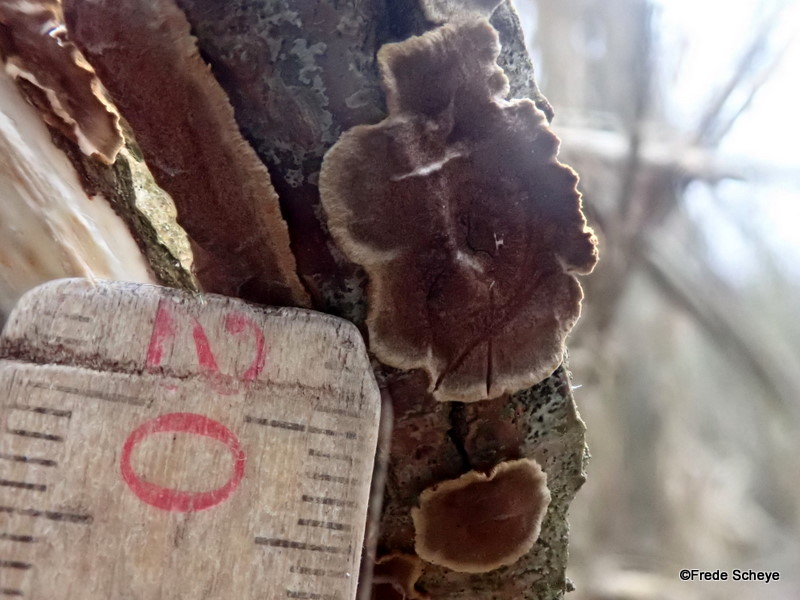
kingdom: Fungi
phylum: Basidiomycota
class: Agaricomycetes
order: Hymenochaetales
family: Hymenochaetaceae
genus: Hydnoporia
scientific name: Hydnoporia tabacina
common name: tobaksbrun ruslædersvamp
